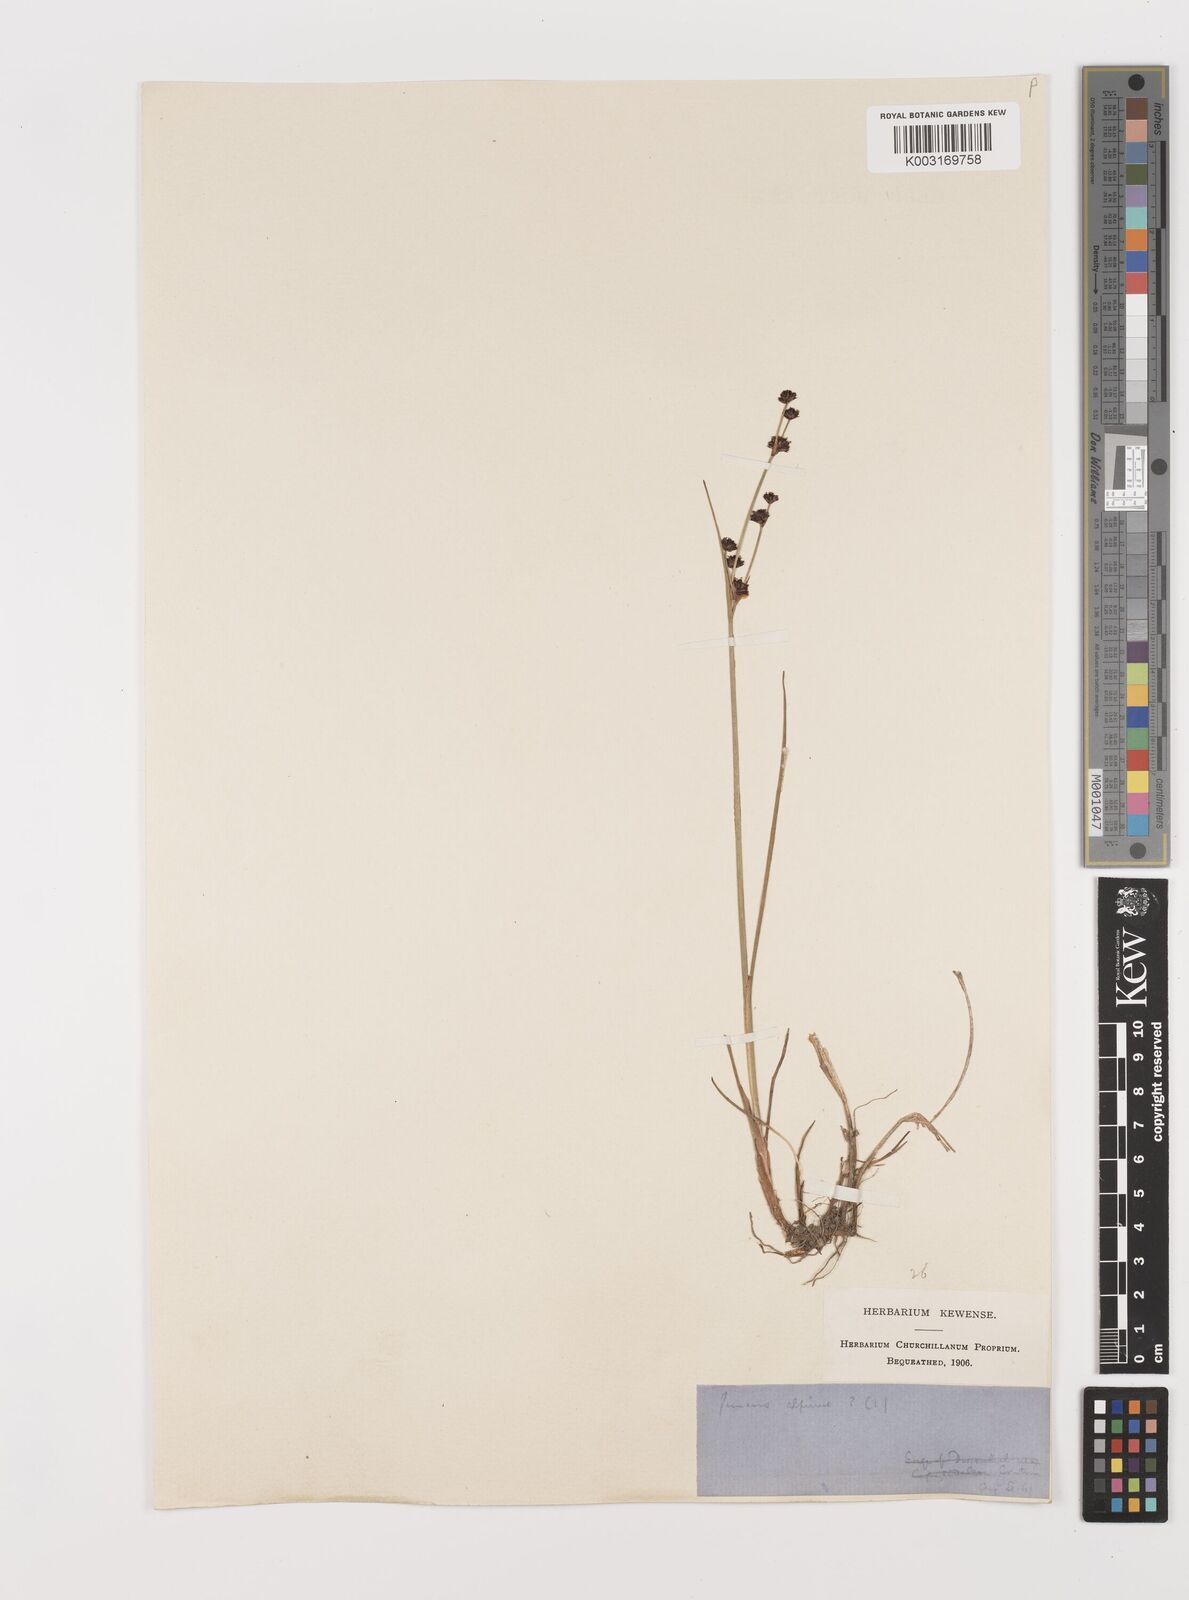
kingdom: Plantae
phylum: Tracheophyta
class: Liliopsida
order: Poales
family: Juncaceae
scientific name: Juncaceae
